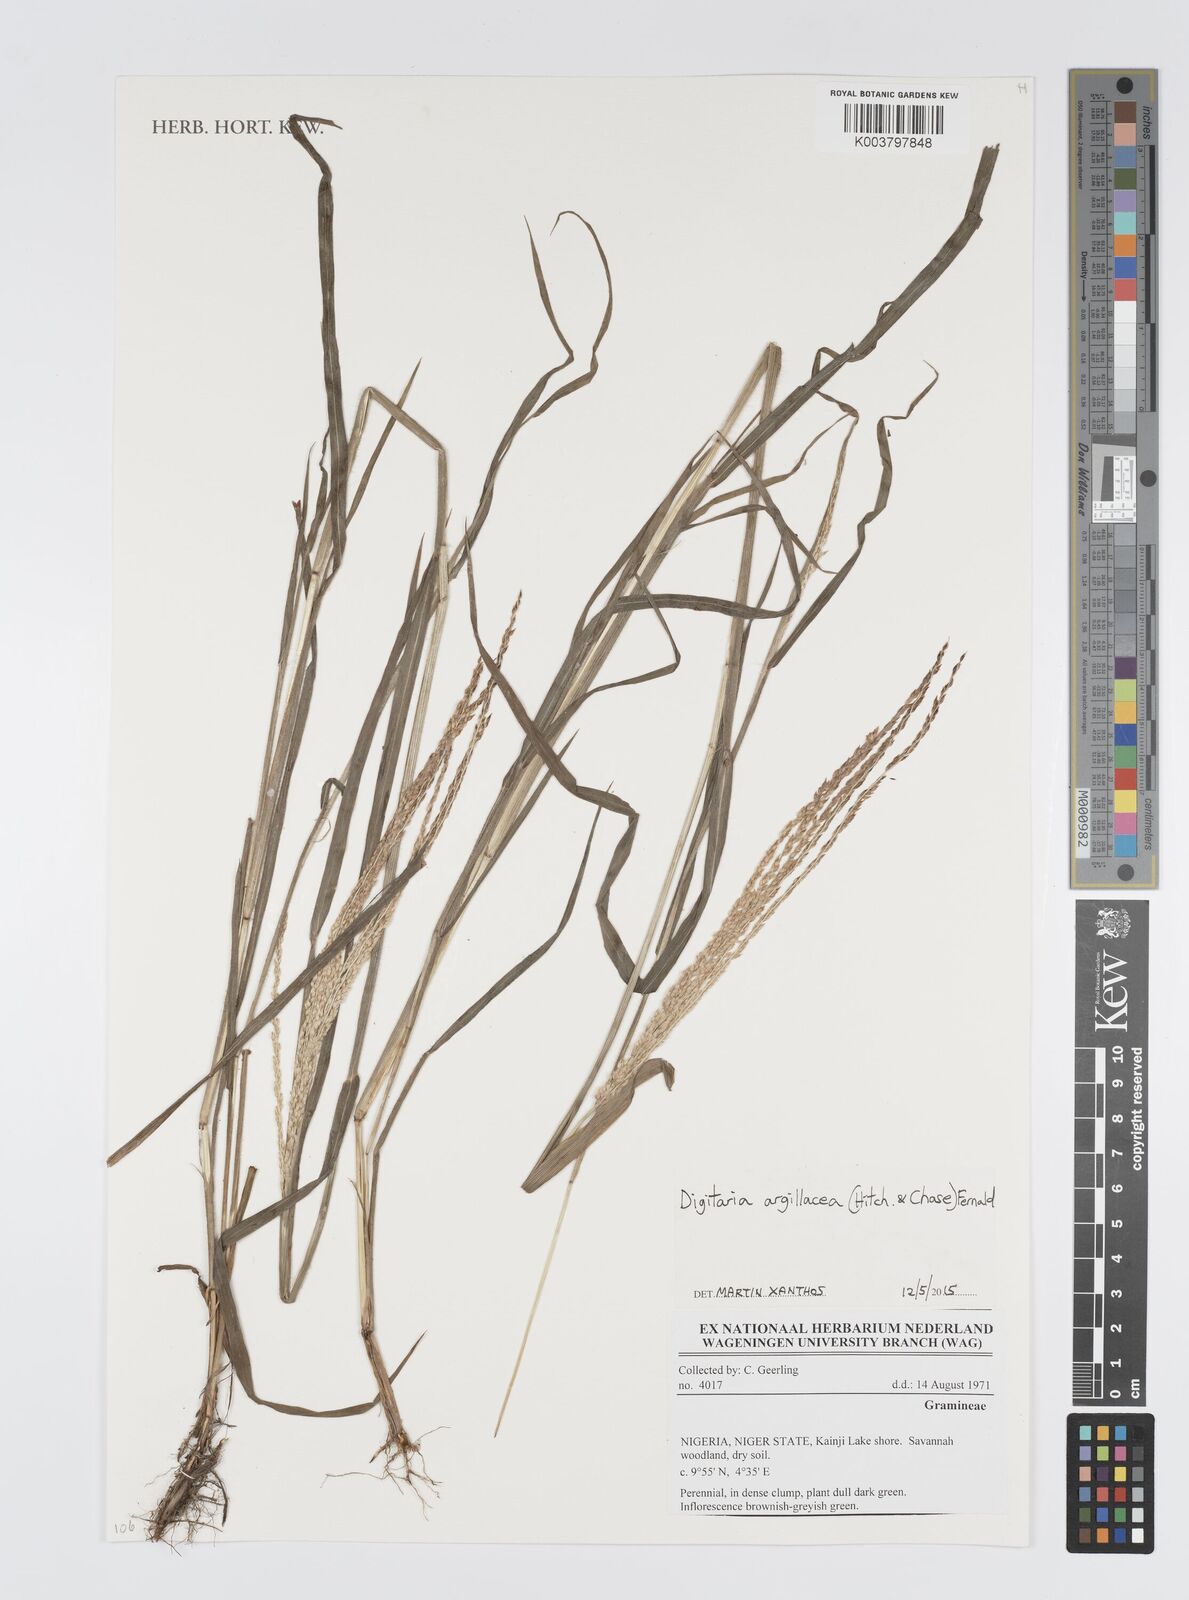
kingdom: Plantae
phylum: Tracheophyta
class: Liliopsida
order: Poales
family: Poaceae
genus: Digitaria
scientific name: Digitaria argillacea
